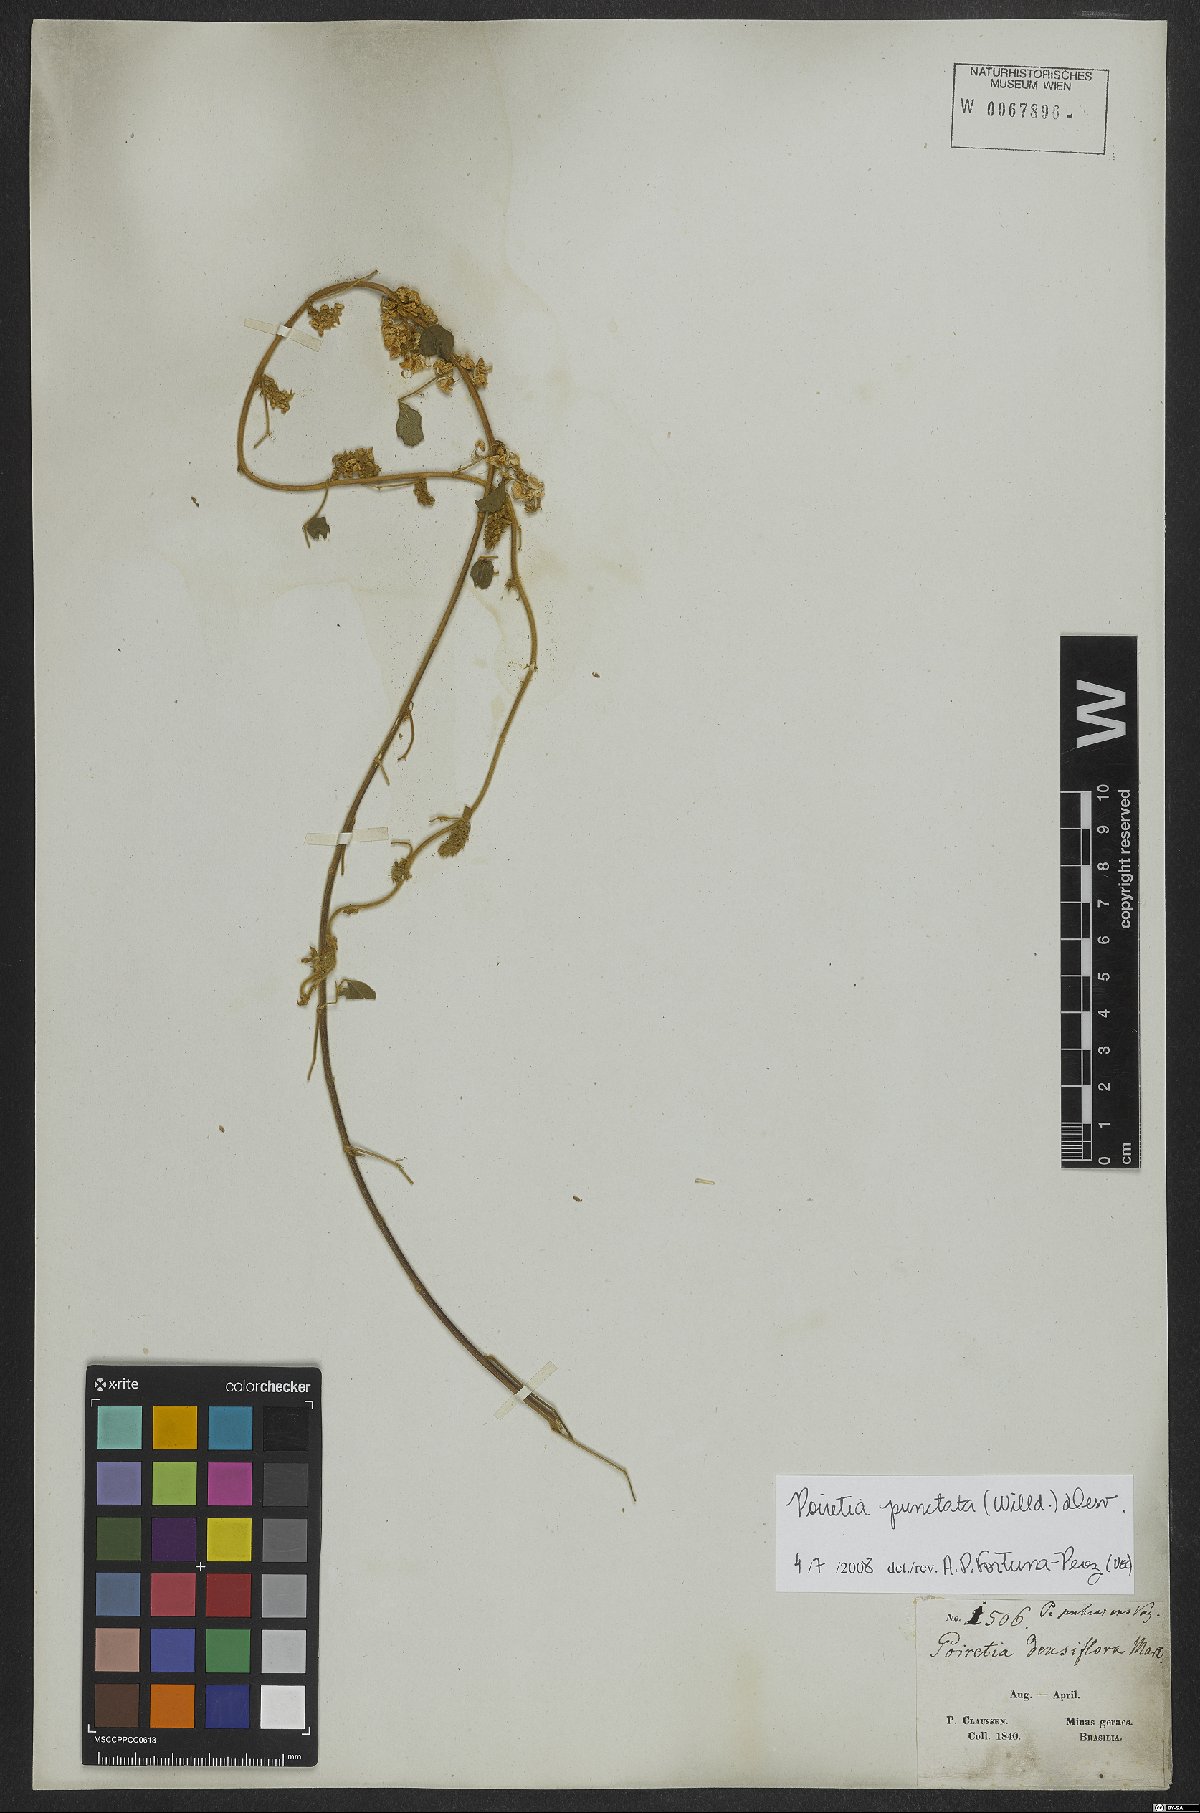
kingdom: Plantae
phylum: Tracheophyta
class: Magnoliopsida
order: Fabales
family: Fabaceae
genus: Poiretia
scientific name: Poiretia punctata
